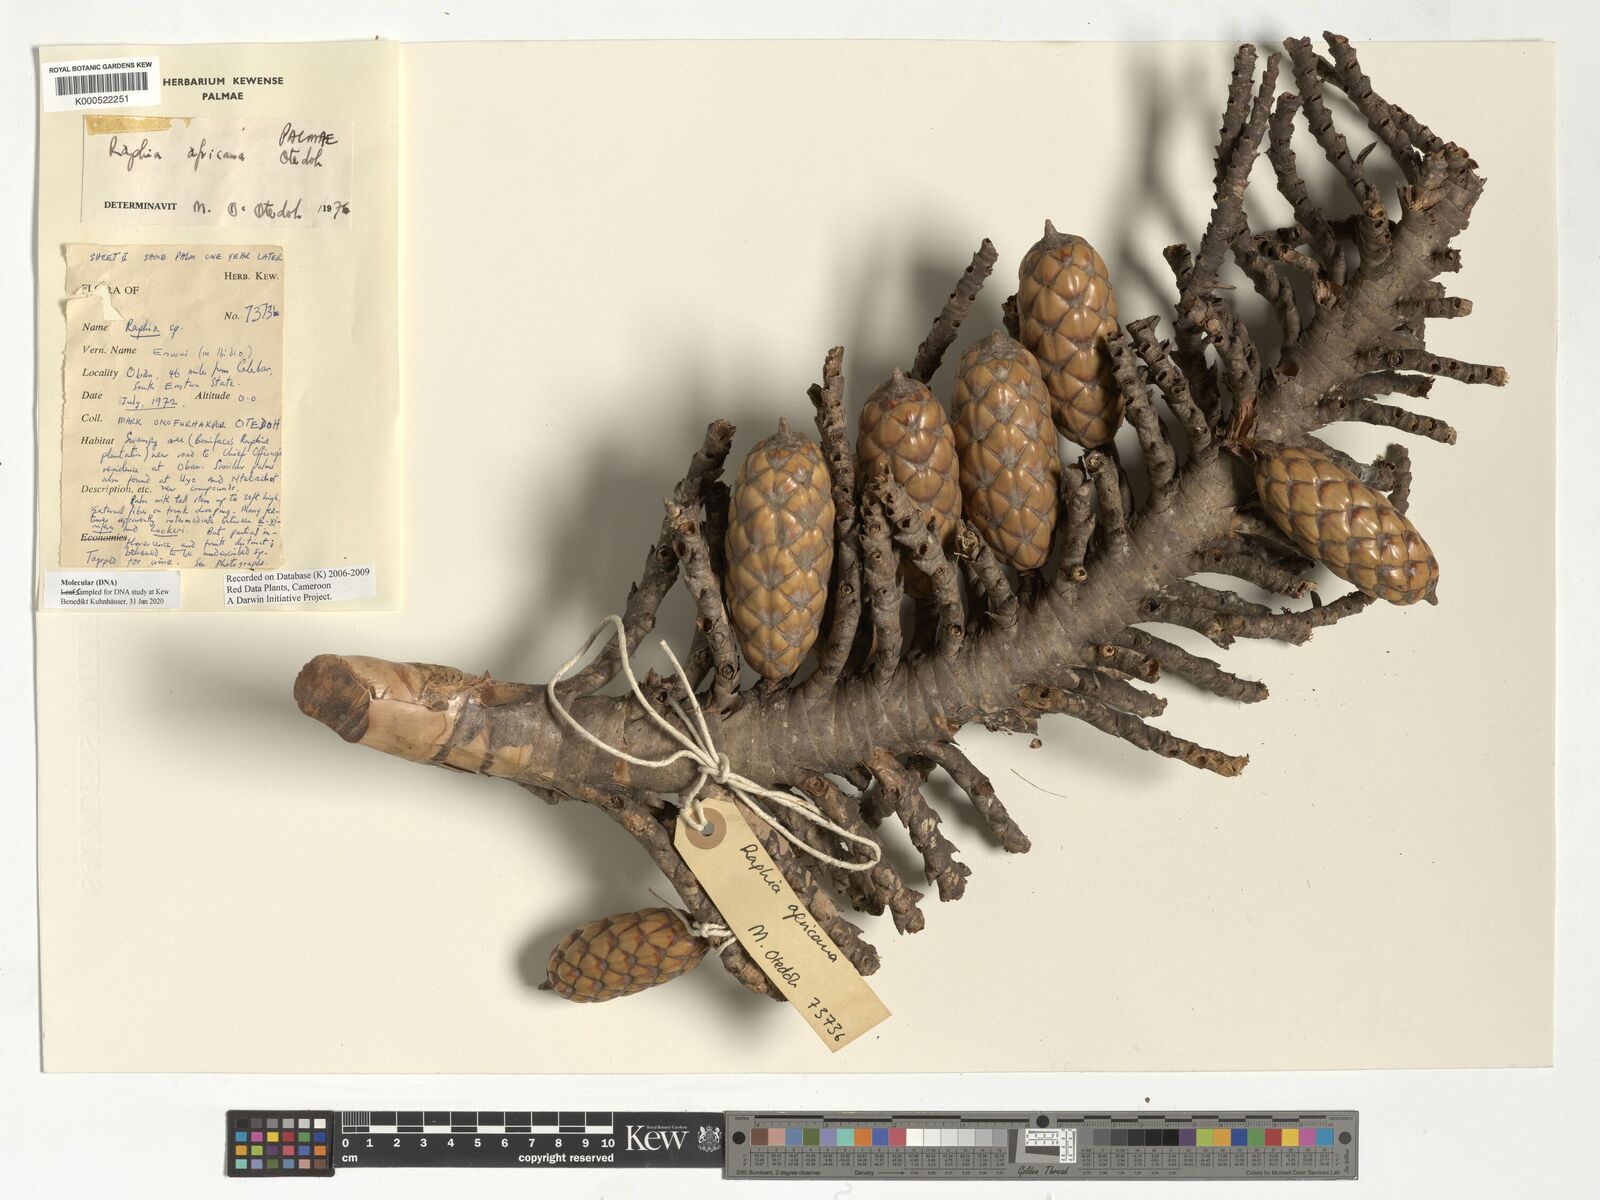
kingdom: Plantae
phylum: Tracheophyta
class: Liliopsida
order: Arecales
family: Arecaceae
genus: Raphia
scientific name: Raphia africana
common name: Raphia palm
